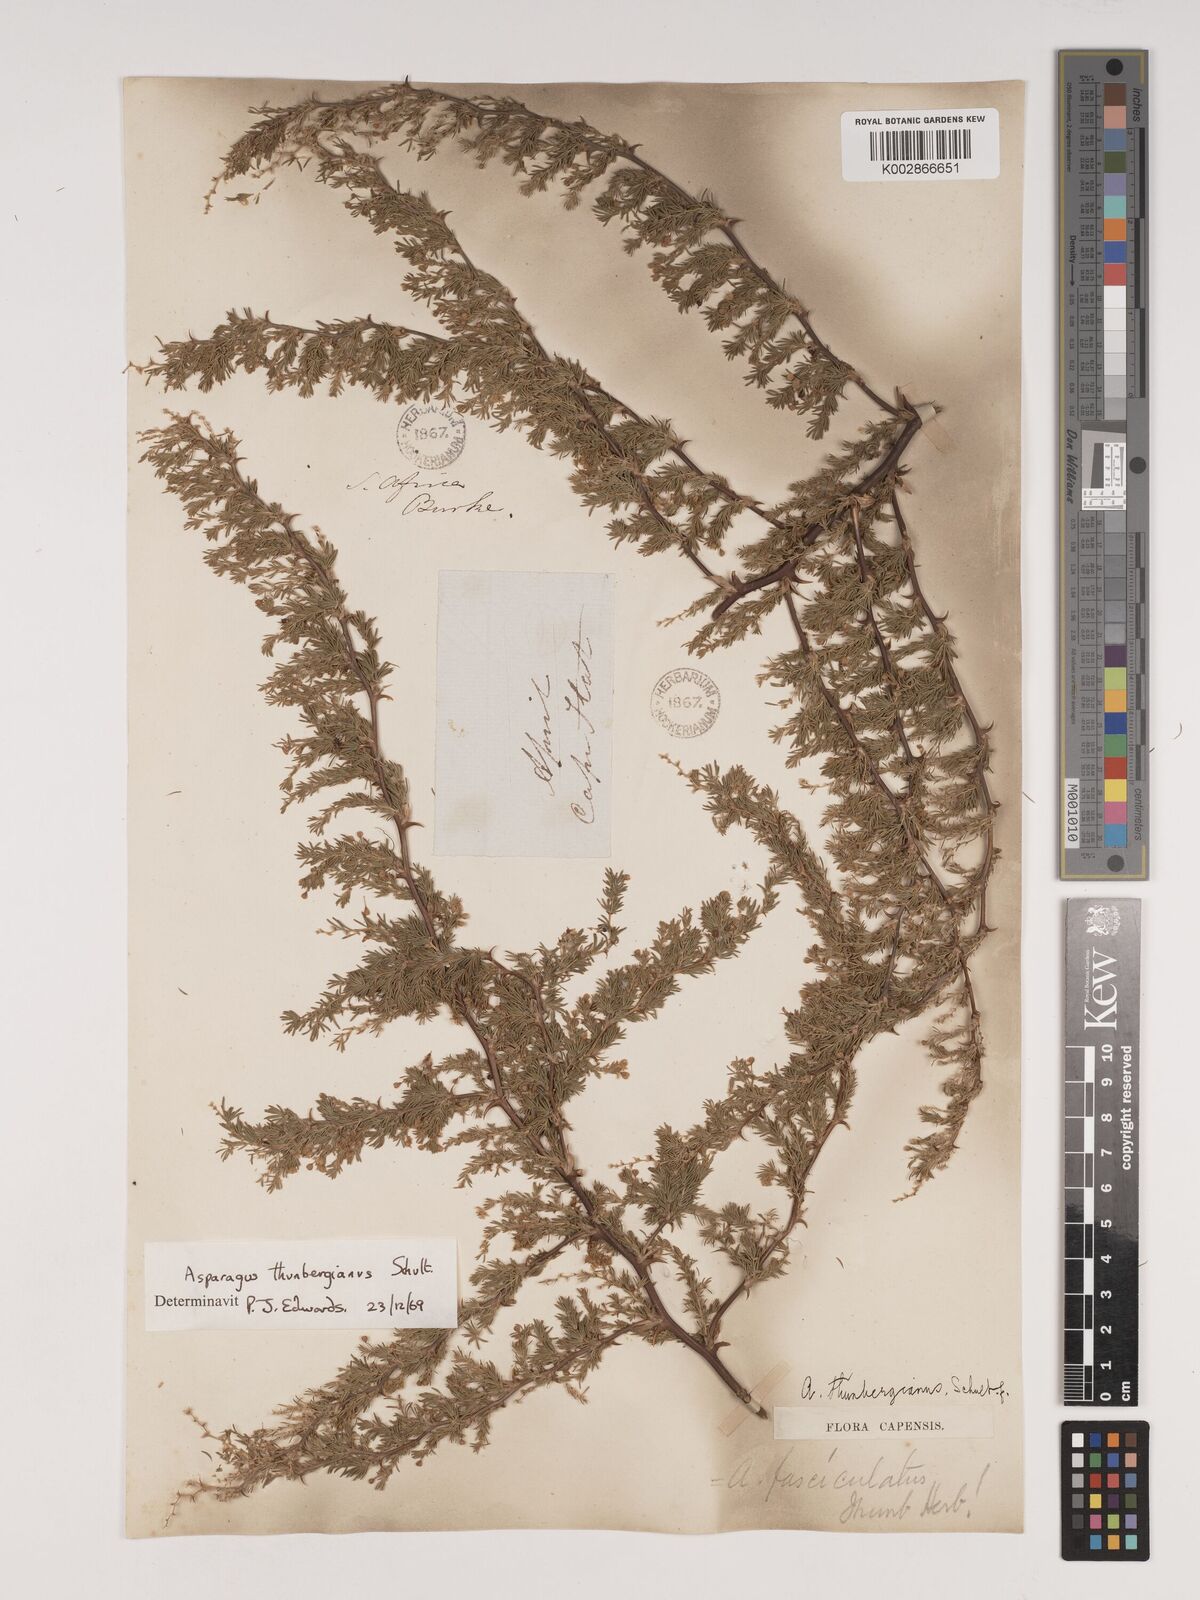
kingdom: Plantae
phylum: Tracheophyta
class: Liliopsida
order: Asparagales
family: Asparagaceae
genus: Asparagus
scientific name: Asparagus rubicundus
